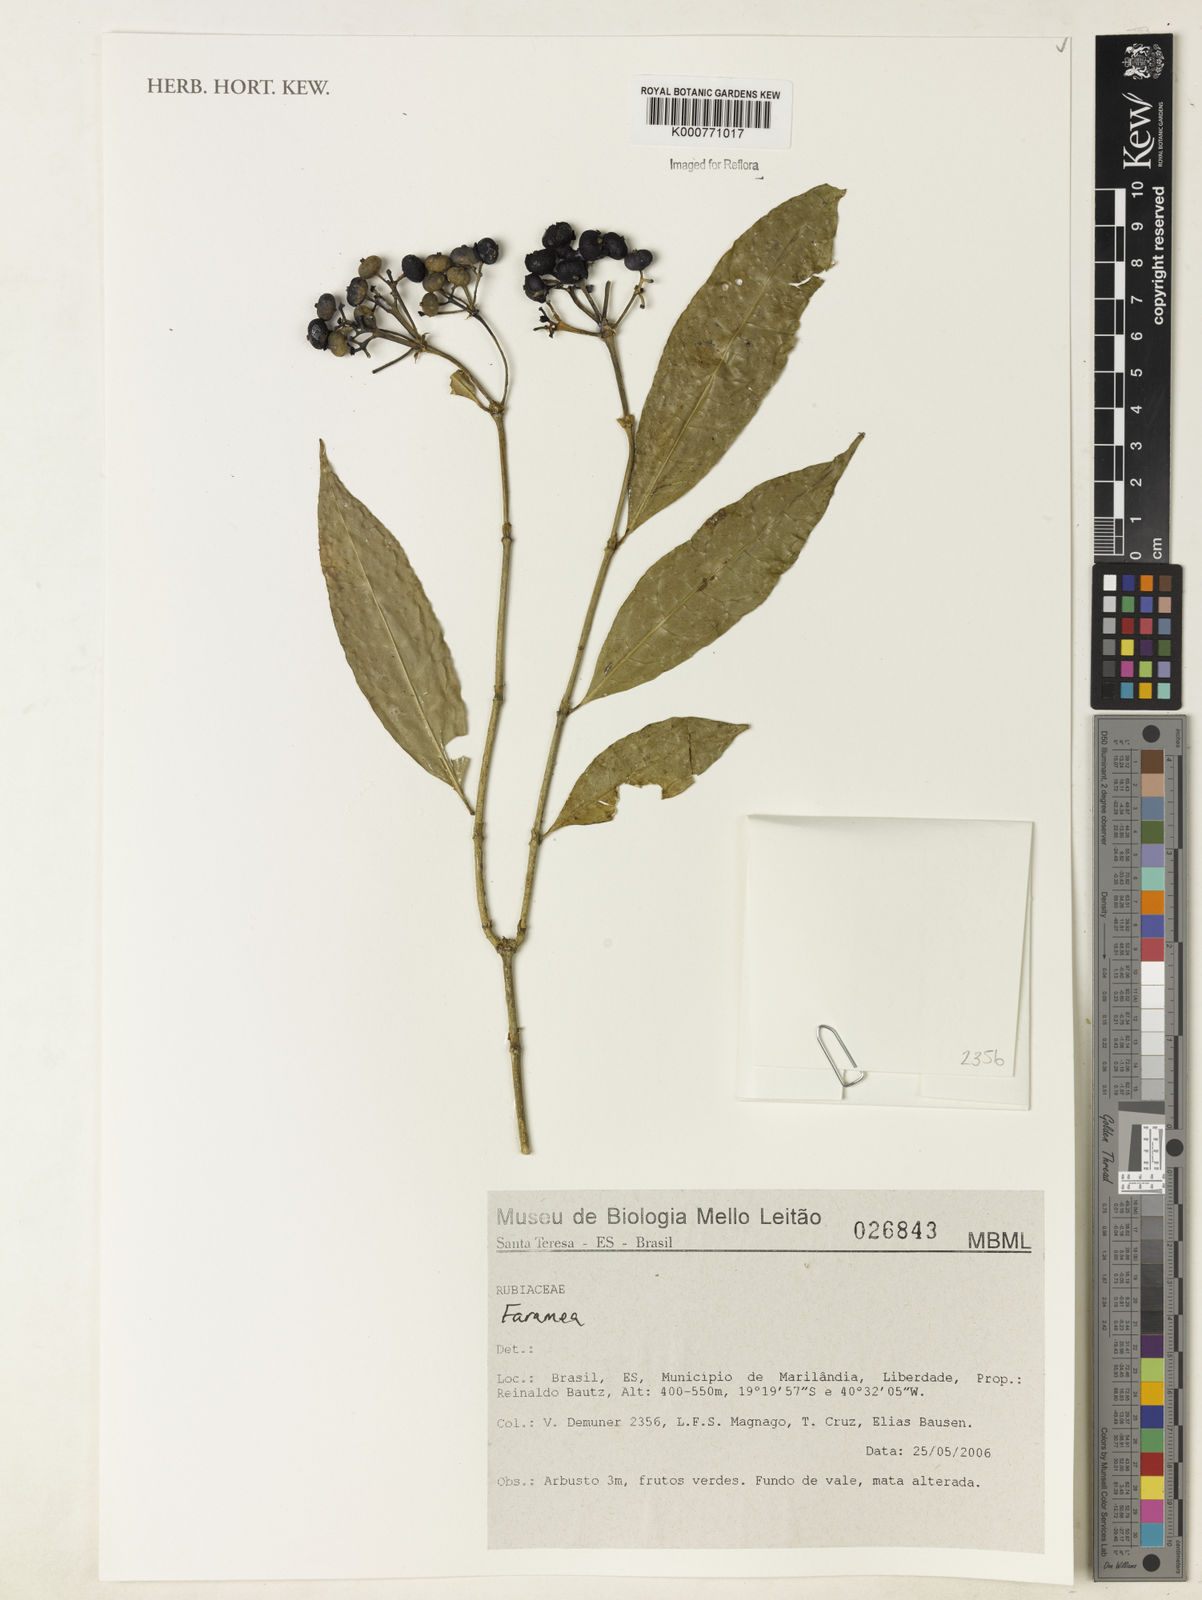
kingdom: Plantae
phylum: Tracheophyta
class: Magnoliopsida
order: Gentianales
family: Rubiaceae
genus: Faramea
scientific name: Faramea
